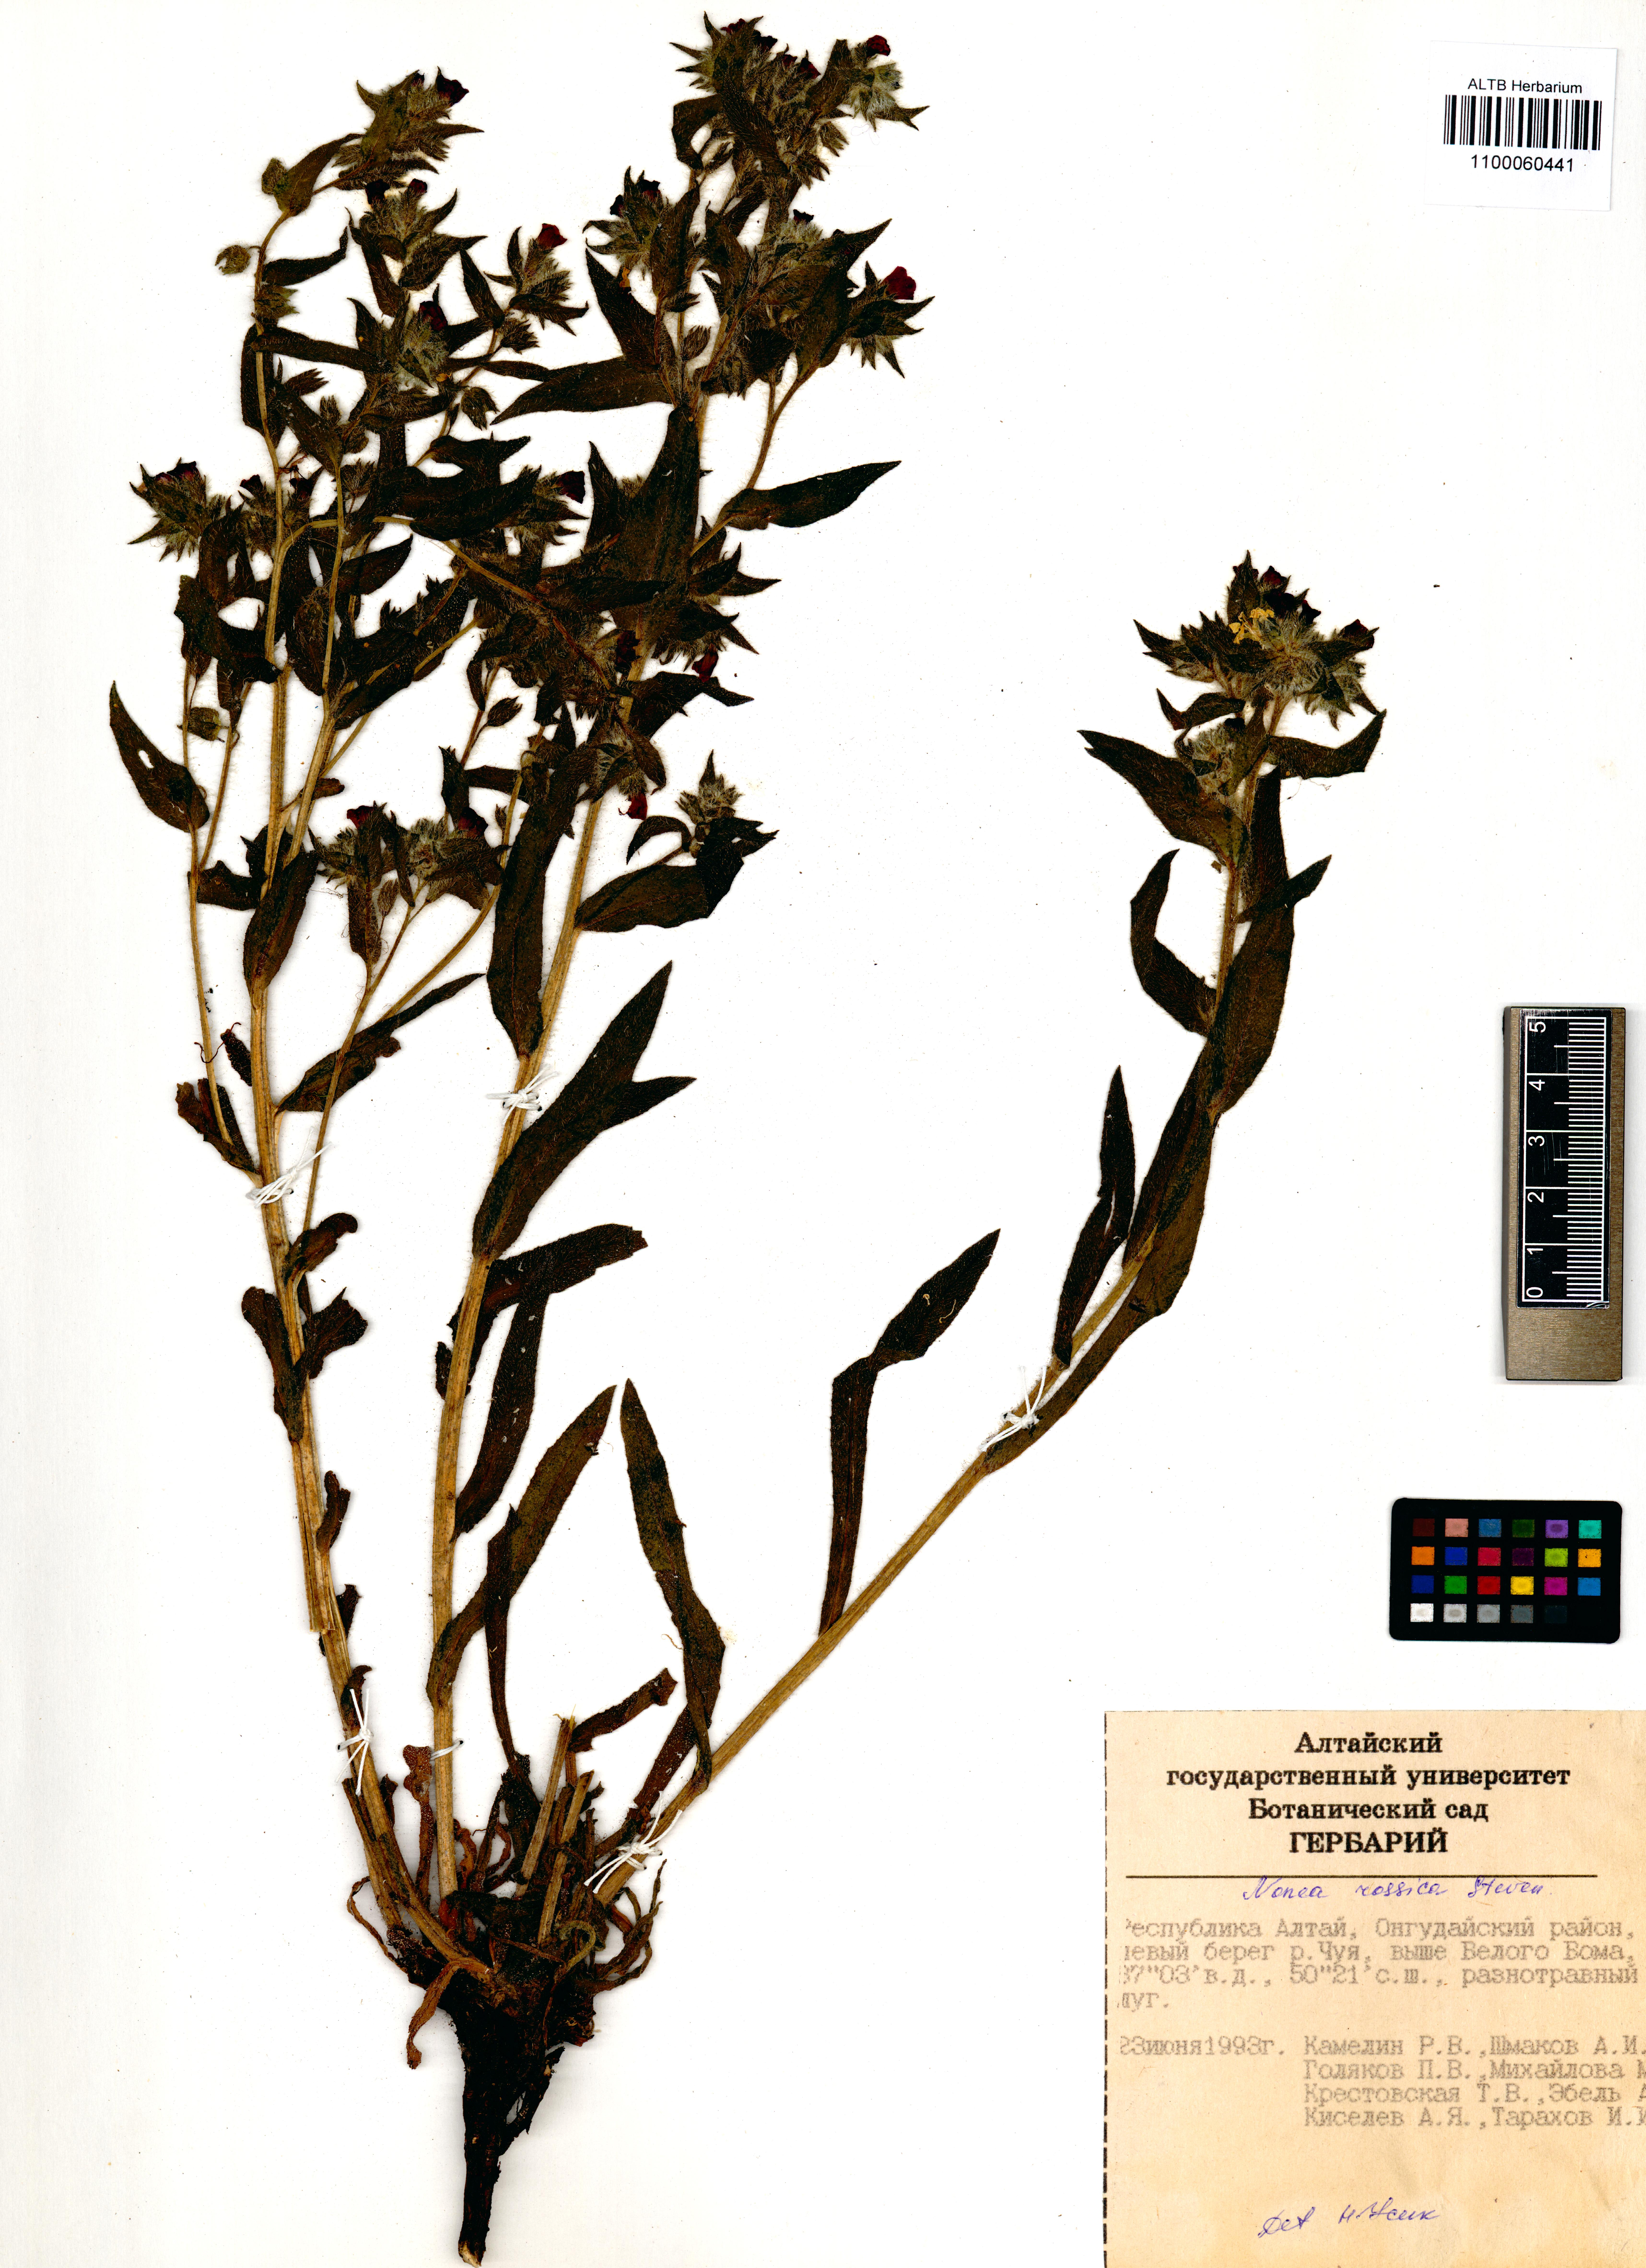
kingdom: Plantae
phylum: Tracheophyta
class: Magnoliopsida
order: Boraginales
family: Boraginaceae
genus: Nonea
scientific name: Nonea pulla
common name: Brown nonea
